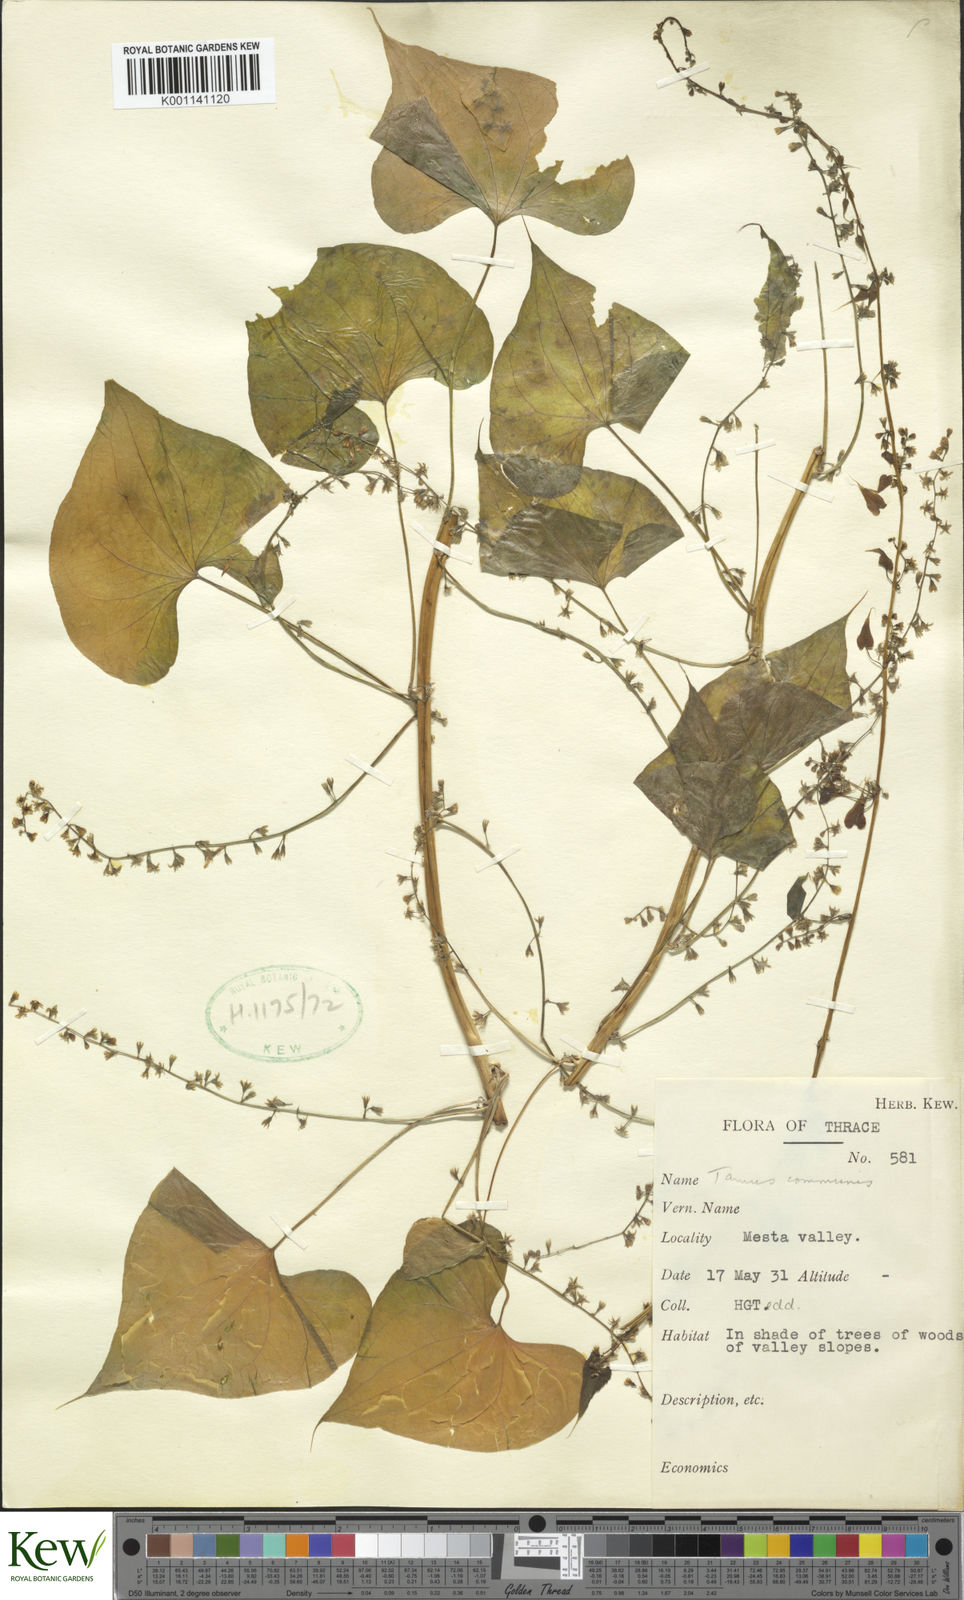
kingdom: Plantae
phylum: Tracheophyta
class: Liliopsida
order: Dioscoreales
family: Dioscoreaceae
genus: Dioscorea
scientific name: Dioscorea communis
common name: Black-bindweed
